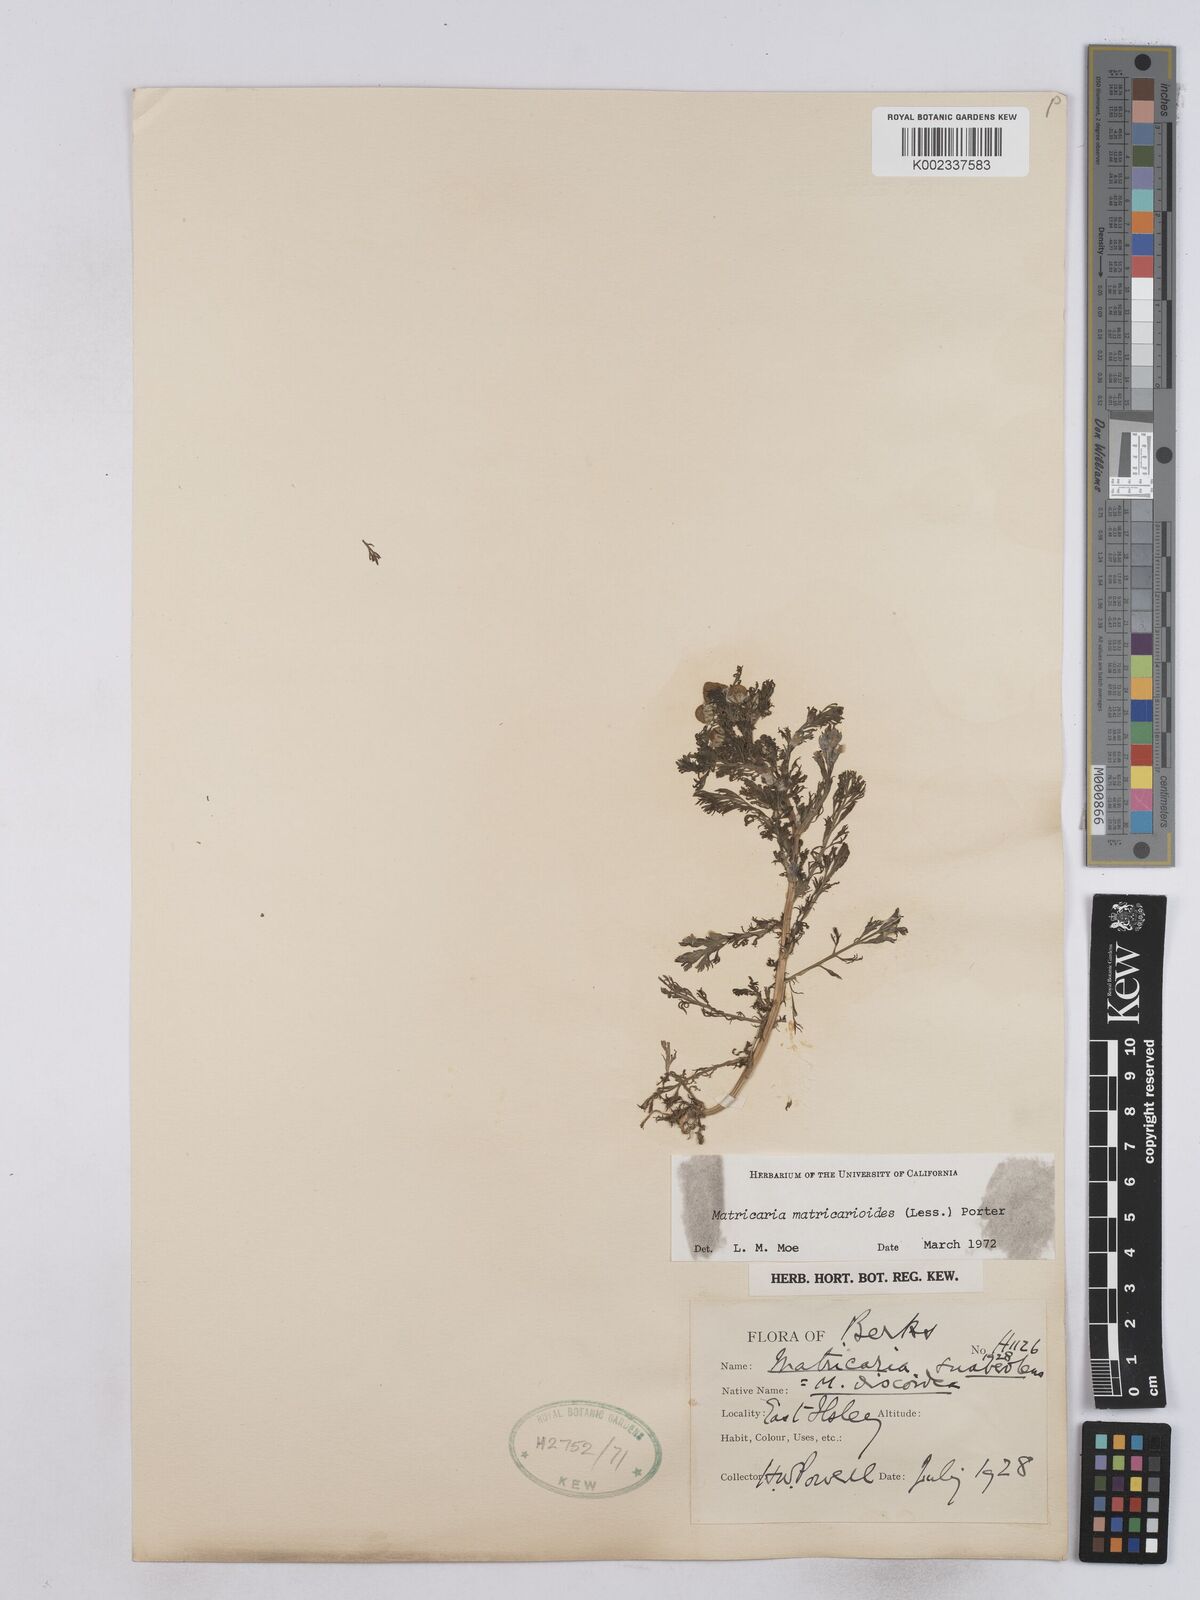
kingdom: Plantae
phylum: Tracheophyta
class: Magnoliopsida
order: Asterales
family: Asteraceae
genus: Matricaria
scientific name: Matricaria discoidea
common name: Disc mayweed
